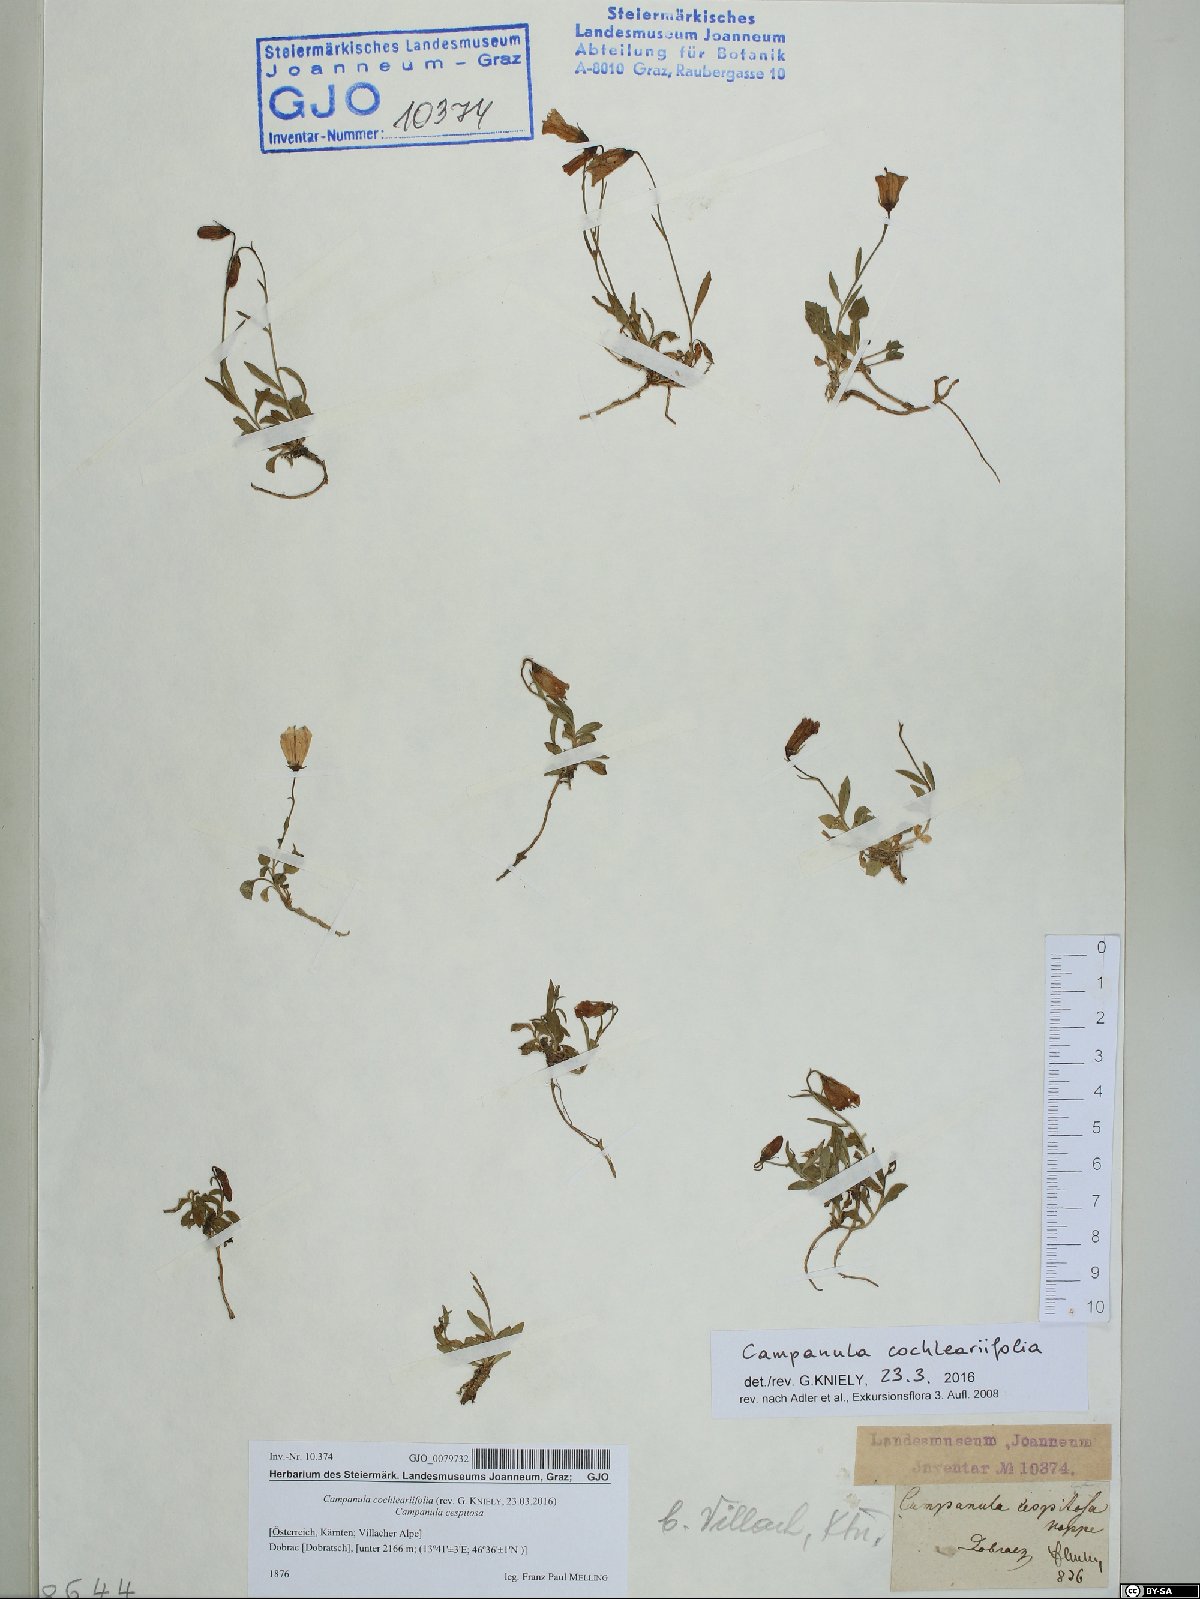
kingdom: Plantae
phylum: Tracheophyta
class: Magnoliopsida
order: Asterales
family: Campanulaceae
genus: Campanula
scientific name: Campanula cochleariifolia
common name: Fairies'-thimbles
